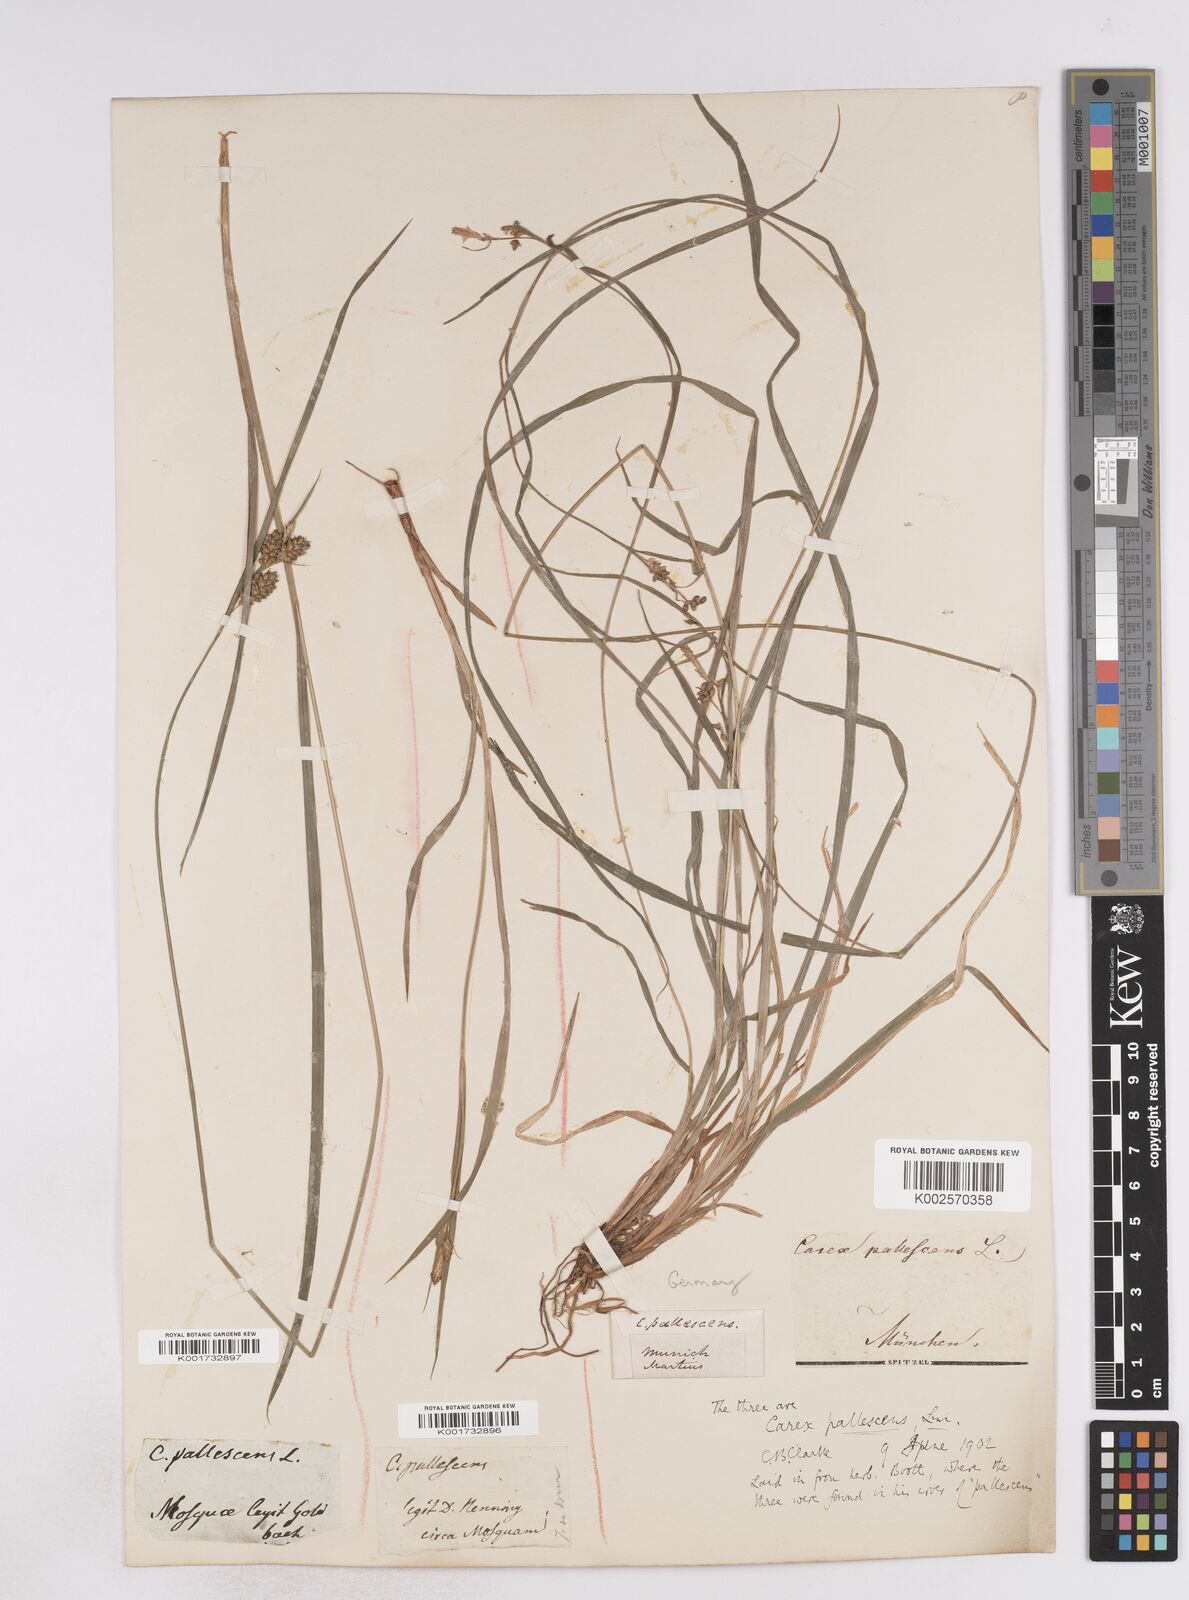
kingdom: Plantae
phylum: Tracheophyta
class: Liliopsida
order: Poales
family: Cyperaceae
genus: Carex
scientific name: Carex pallescens
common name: Pale sedge
